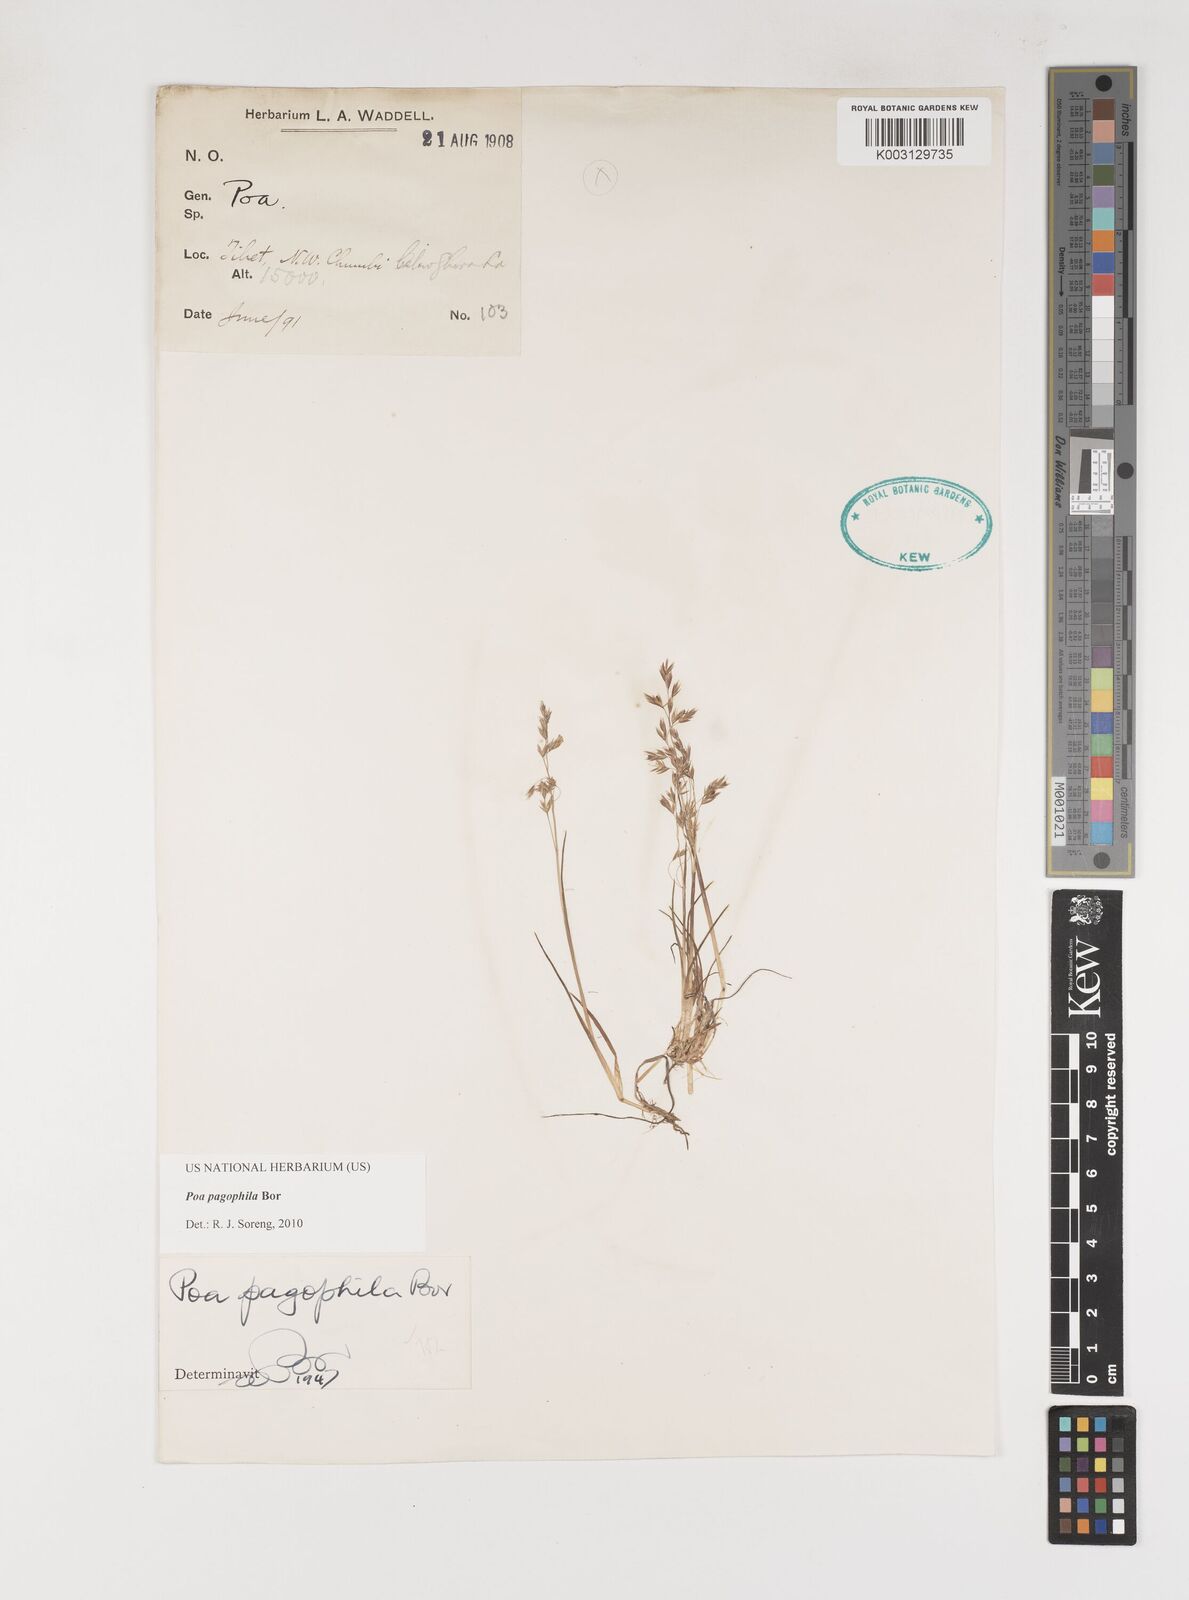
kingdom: Plantae
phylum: Tracheophyta
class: Liliopsida
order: Poales
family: Poaceae
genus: Poa
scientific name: Poa pagophila
